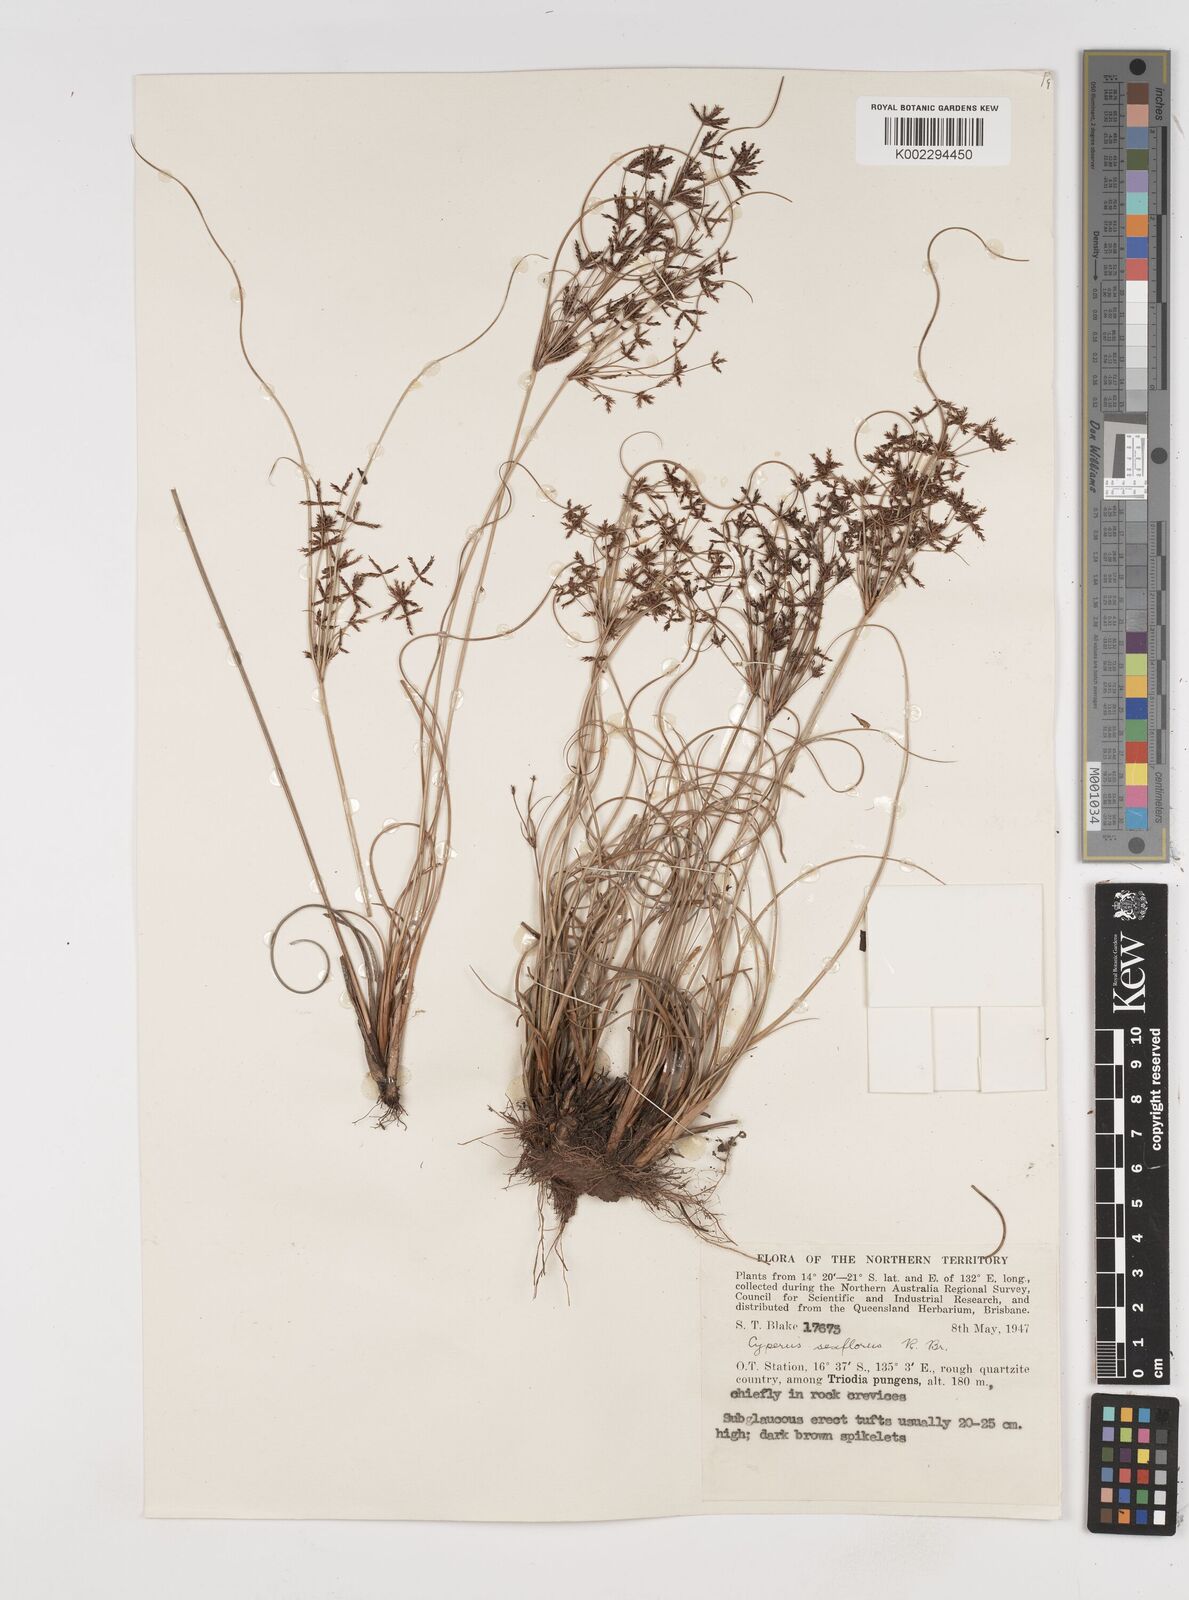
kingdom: Plantae
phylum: Tracheophyta
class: Liliopsida
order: Poales
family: Cyperaceae
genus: Cyperus
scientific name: Cyperus sexflorus
